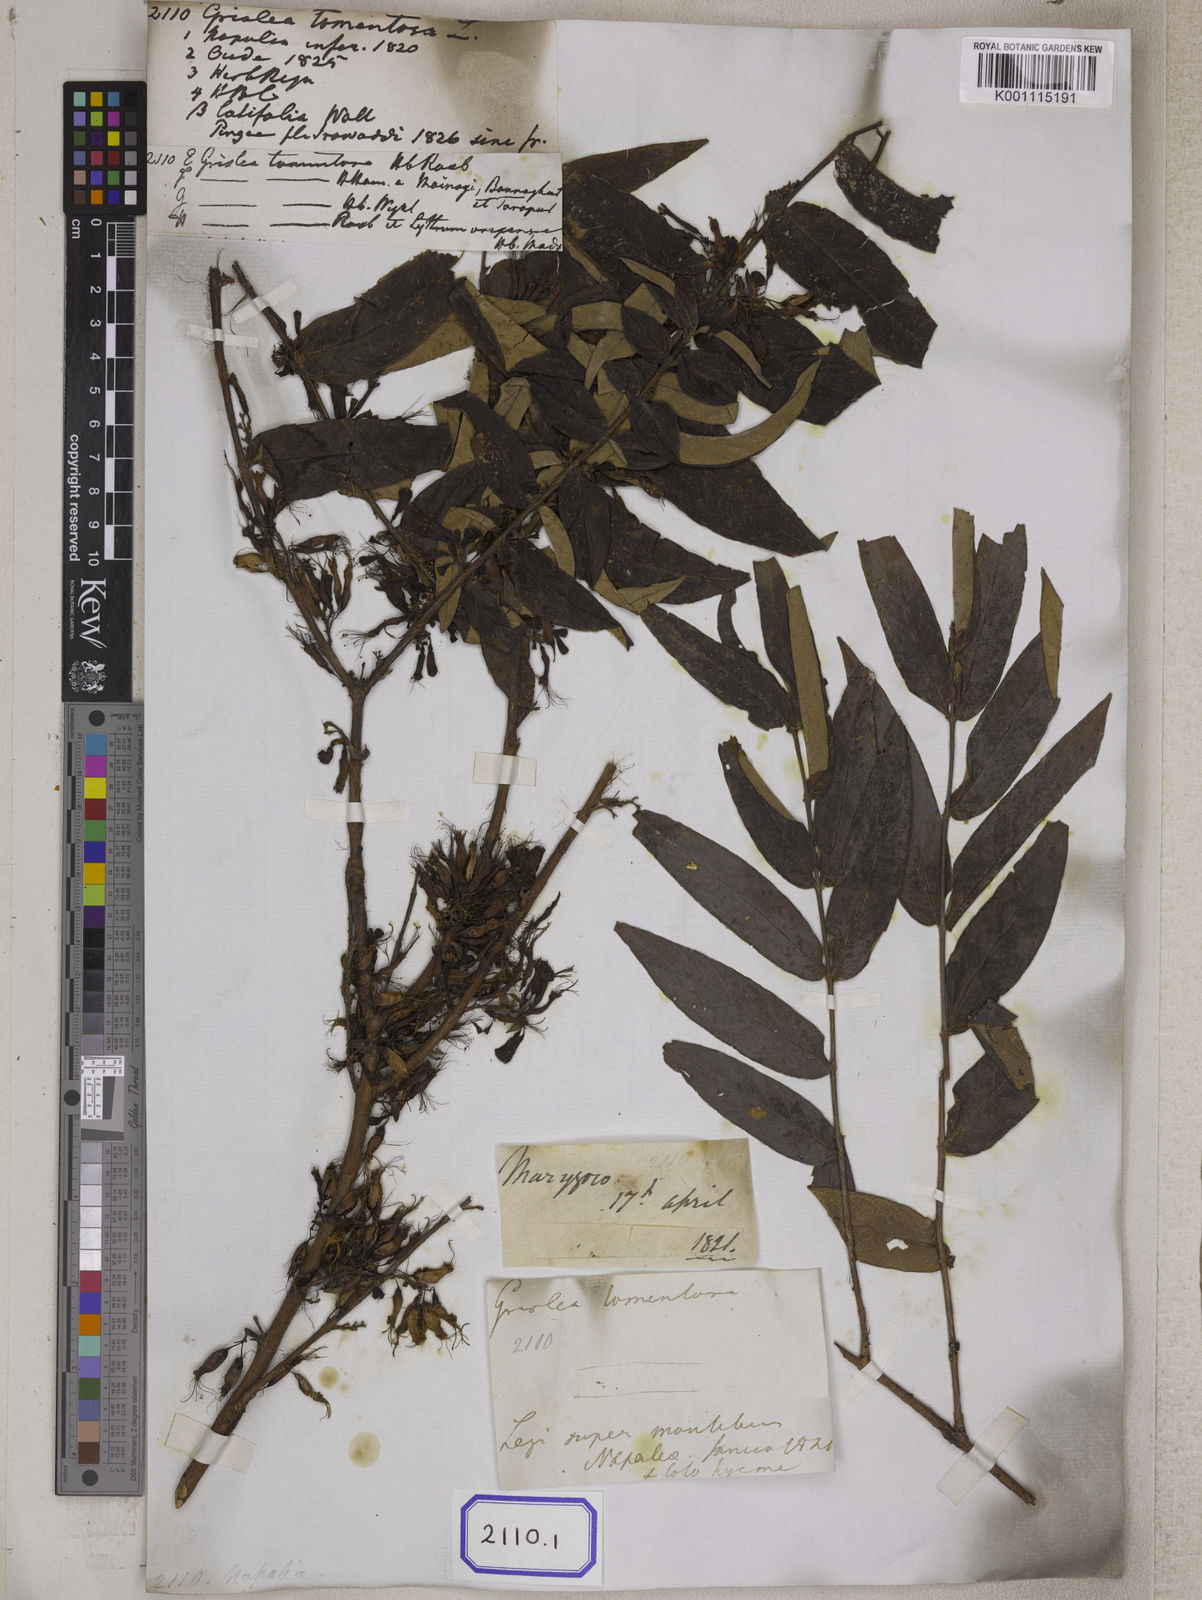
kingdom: Plantae
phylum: Tracheophyta
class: Magnoliopsida
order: Myrtales
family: Combretaceae
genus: Combretum
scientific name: Combretum
